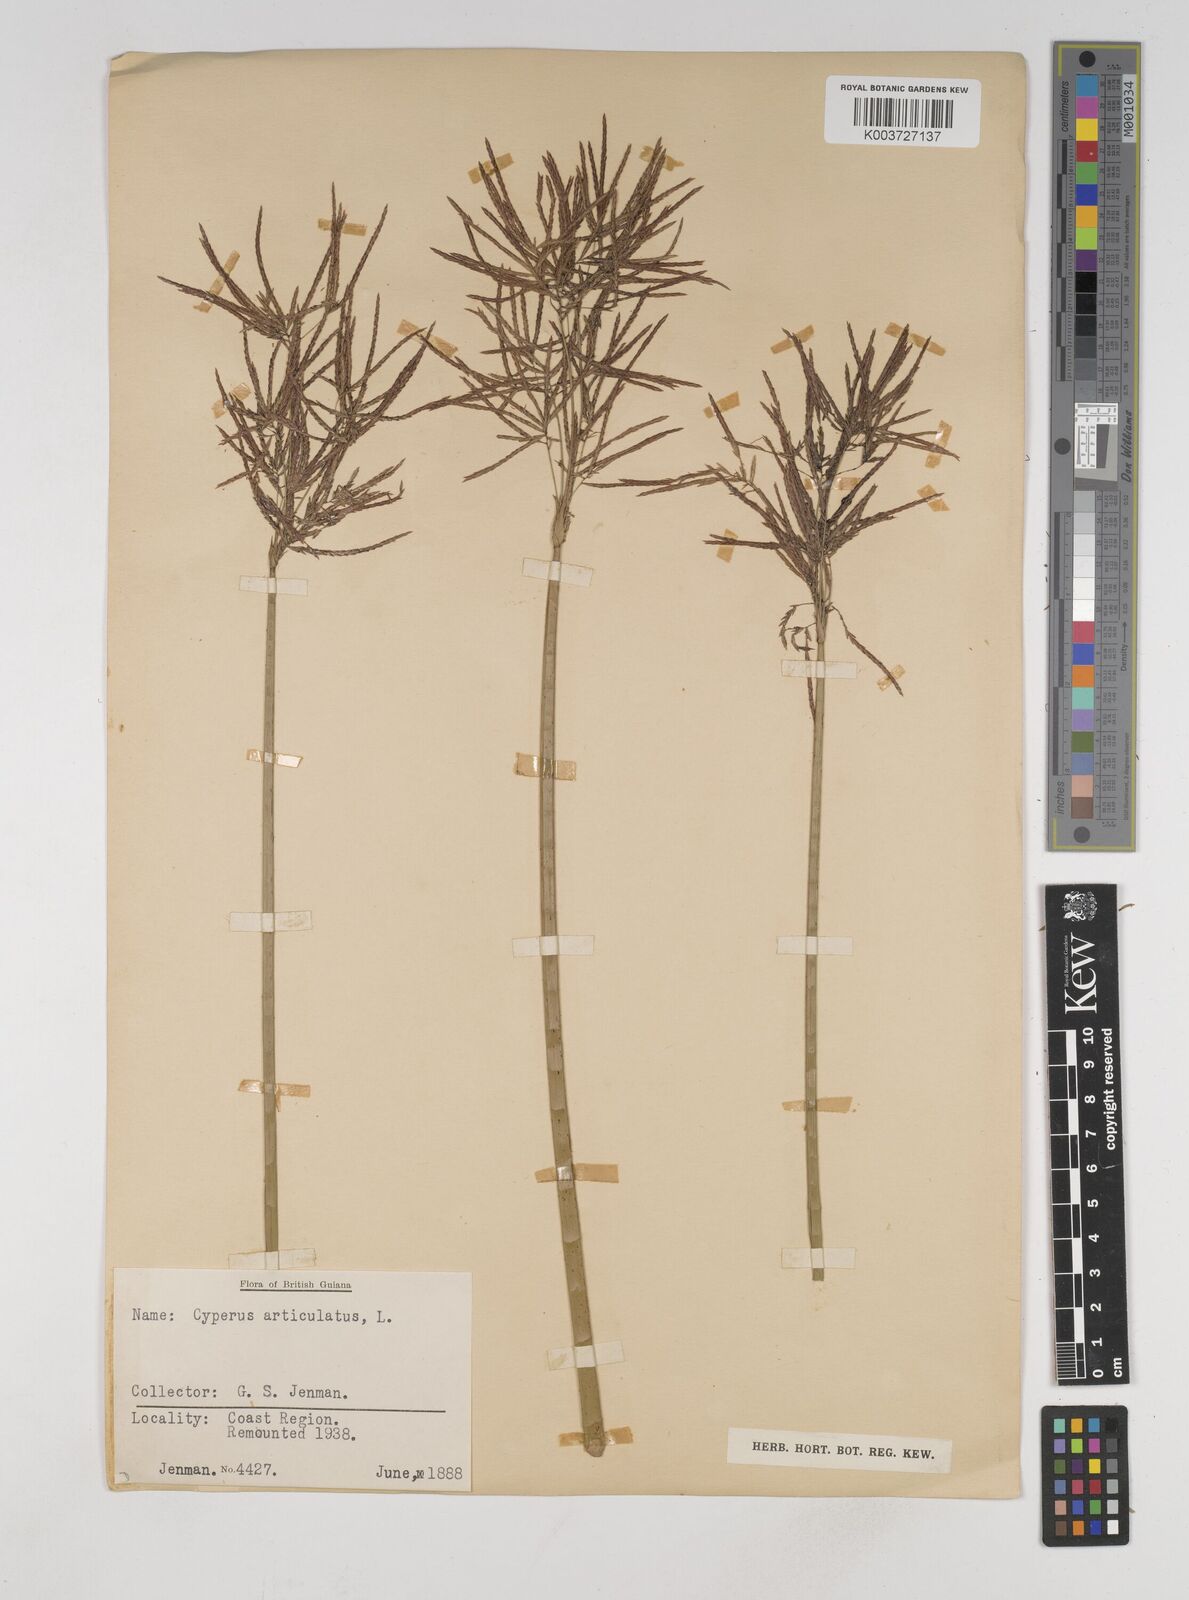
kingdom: Plantae
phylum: Tracheophyta
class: Liliopsida
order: Poales
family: Cyperaceae
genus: Cyperus
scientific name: Cyperus articulatus
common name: Jointed flatsedge
